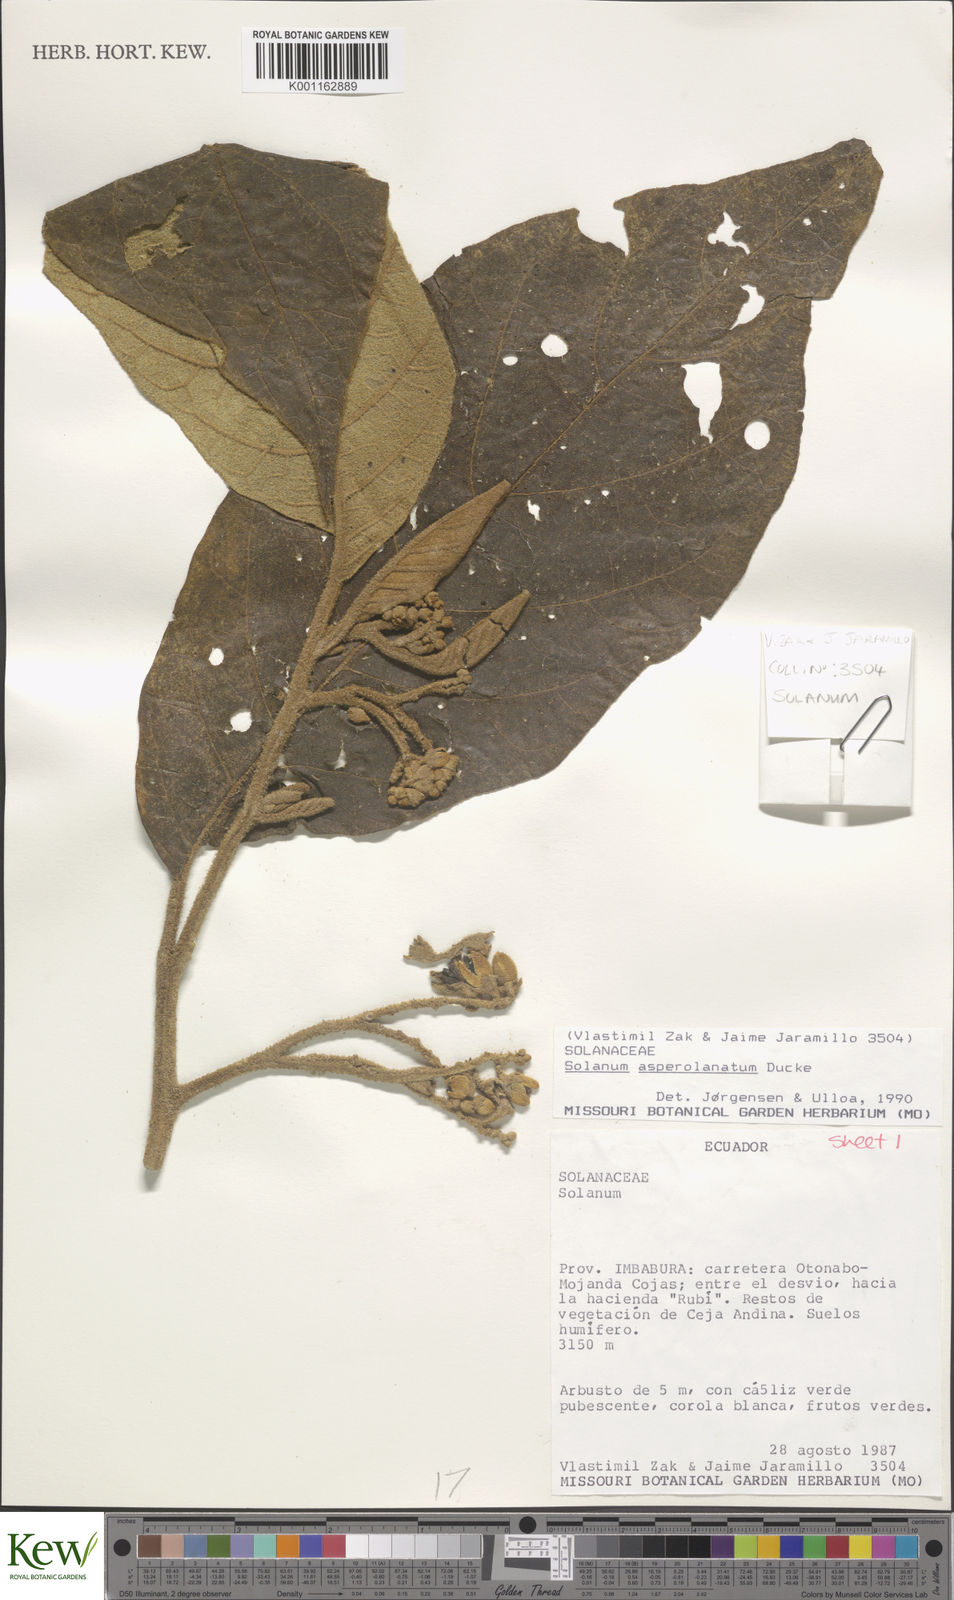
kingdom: Plantae
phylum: Tracheophyta
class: Magnoliopsida
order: Solanales
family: Solanaceae
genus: Solanum
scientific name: Solanum asperolanatum
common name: Devil's-fig
